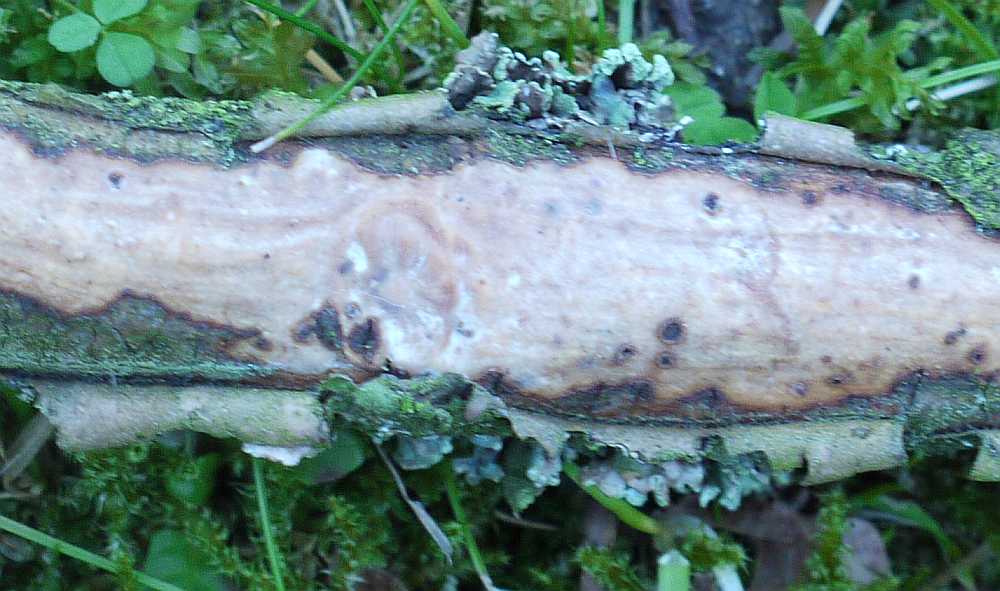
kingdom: Fungi
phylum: Basidiomycota
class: Agaricomycetes
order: Corticiales
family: Vuilleminiaceae
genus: Vuilleminia
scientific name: Vuilleminia comedens
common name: almindelig barksprænger
